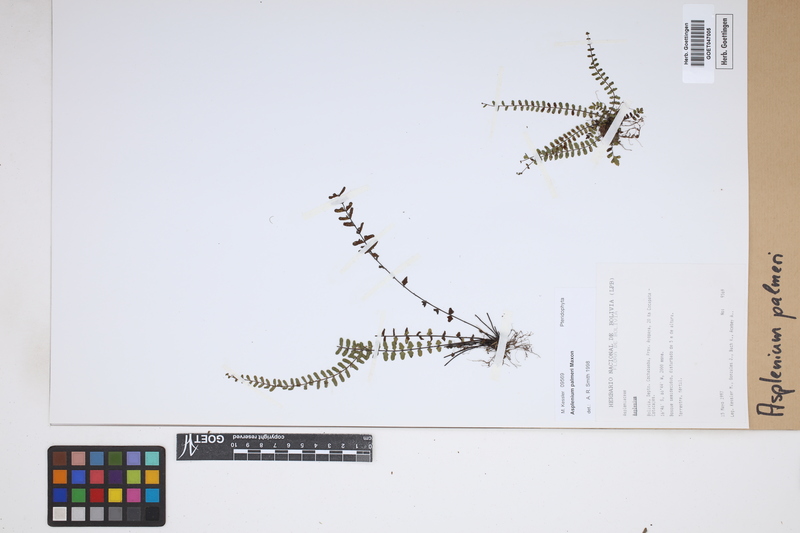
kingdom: Plantae
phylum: Tracheophyta
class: Polypodiopsida
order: Polypodiales
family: Aspleniaceae
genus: Asplenium
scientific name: Asplenium palmeri
